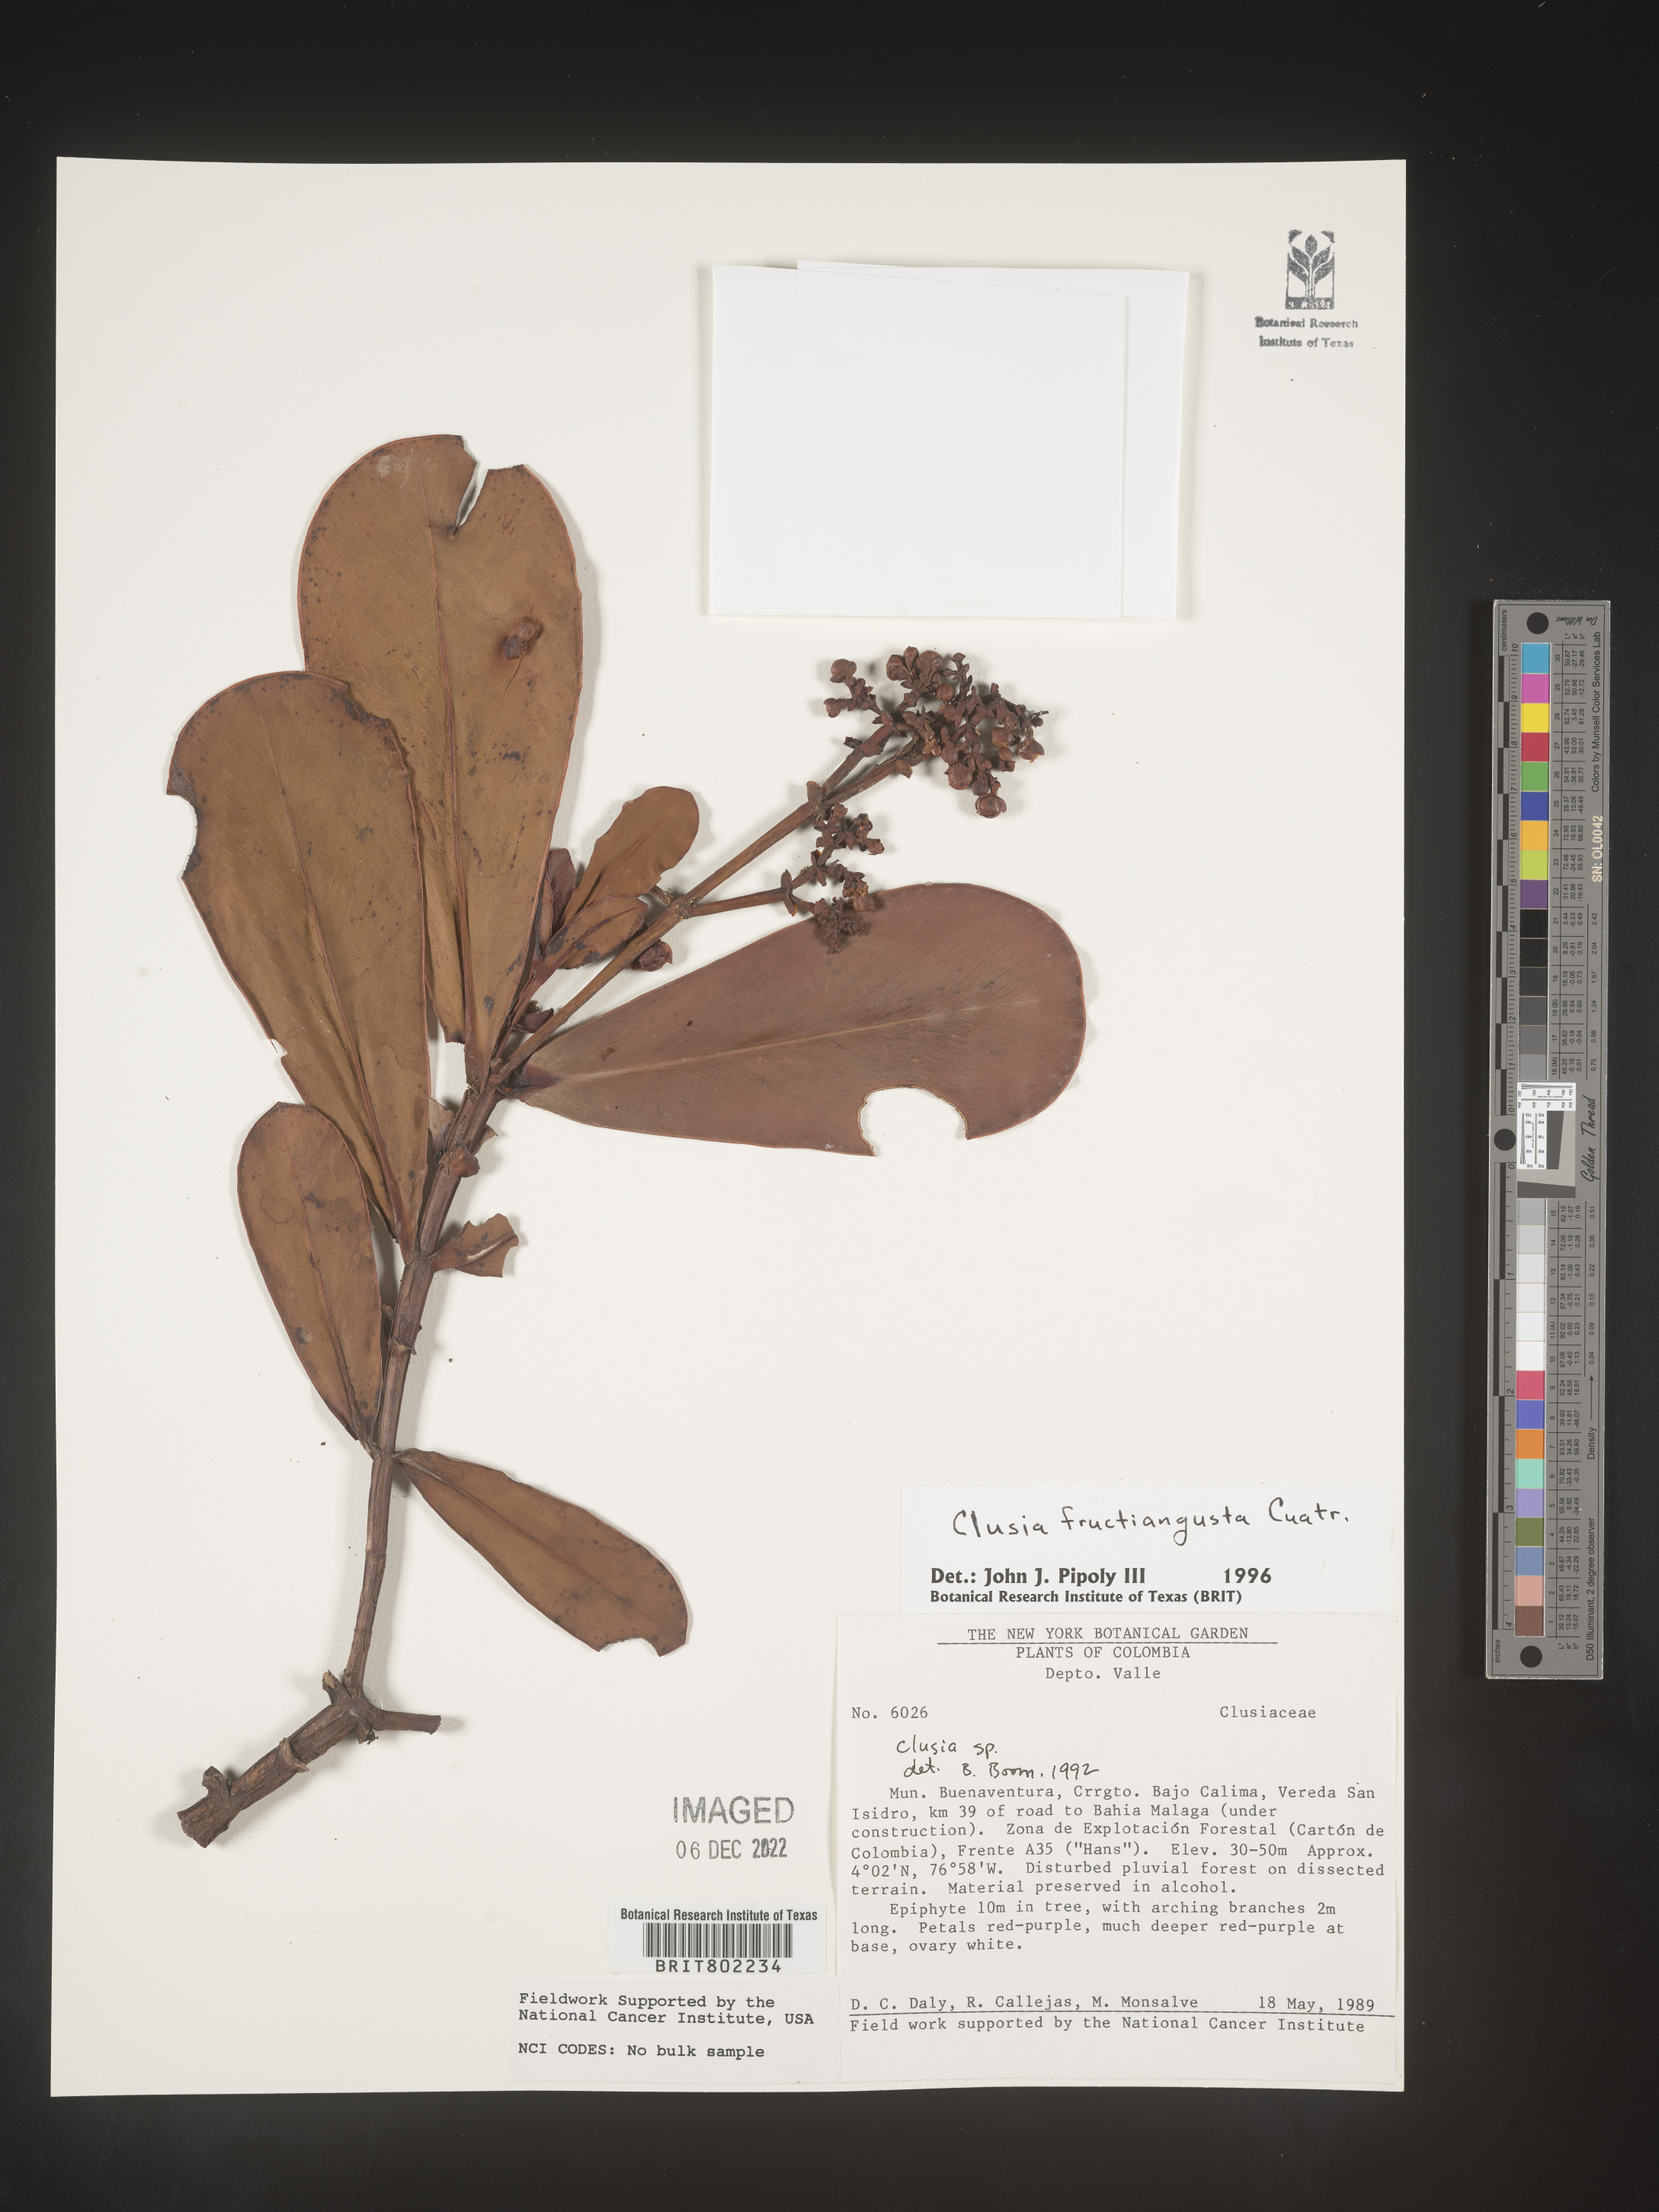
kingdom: Plantae
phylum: Tracheophyta
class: Magnoliopsida
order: Malpighiales
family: Clusiaceae
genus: Clusia
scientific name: Clusia fructiangusta
